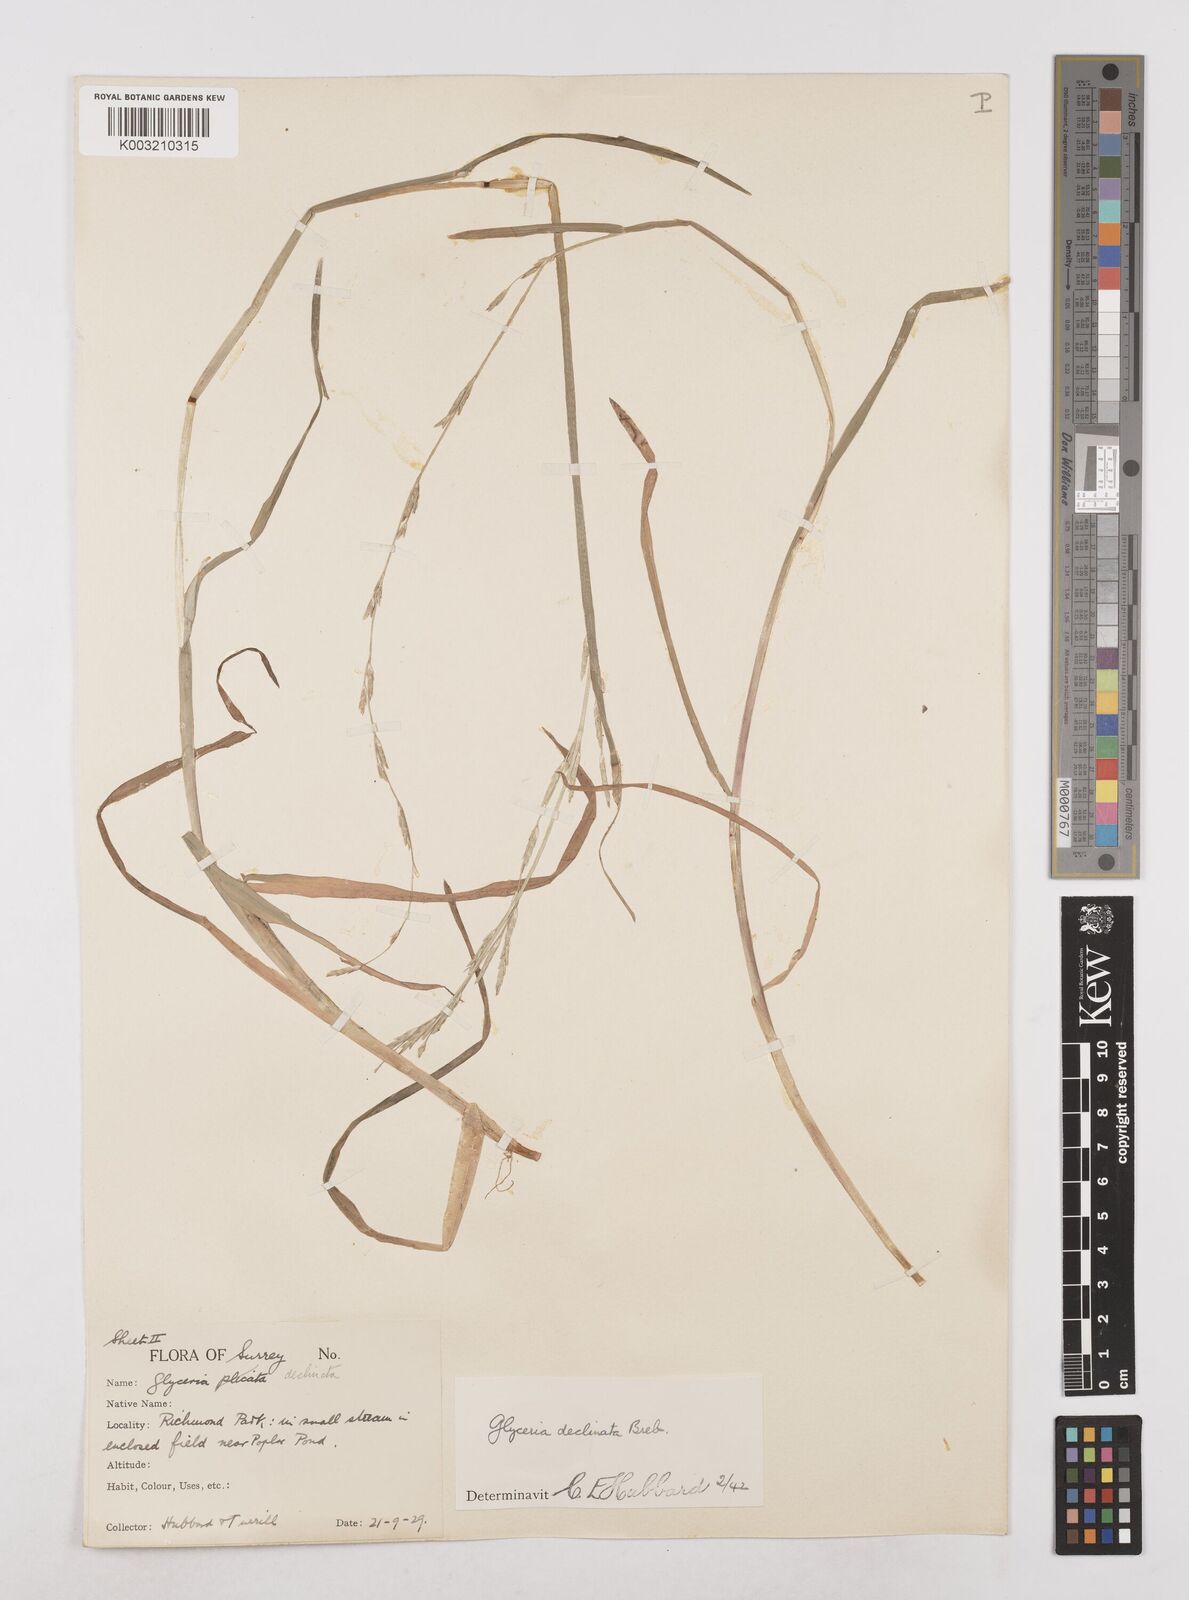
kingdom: Plantae
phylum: Tracheophyta
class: Liliopsida
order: Poales
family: Poaceae
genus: Glyceria
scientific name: Glyceria declinata
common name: Small sweet-grass
